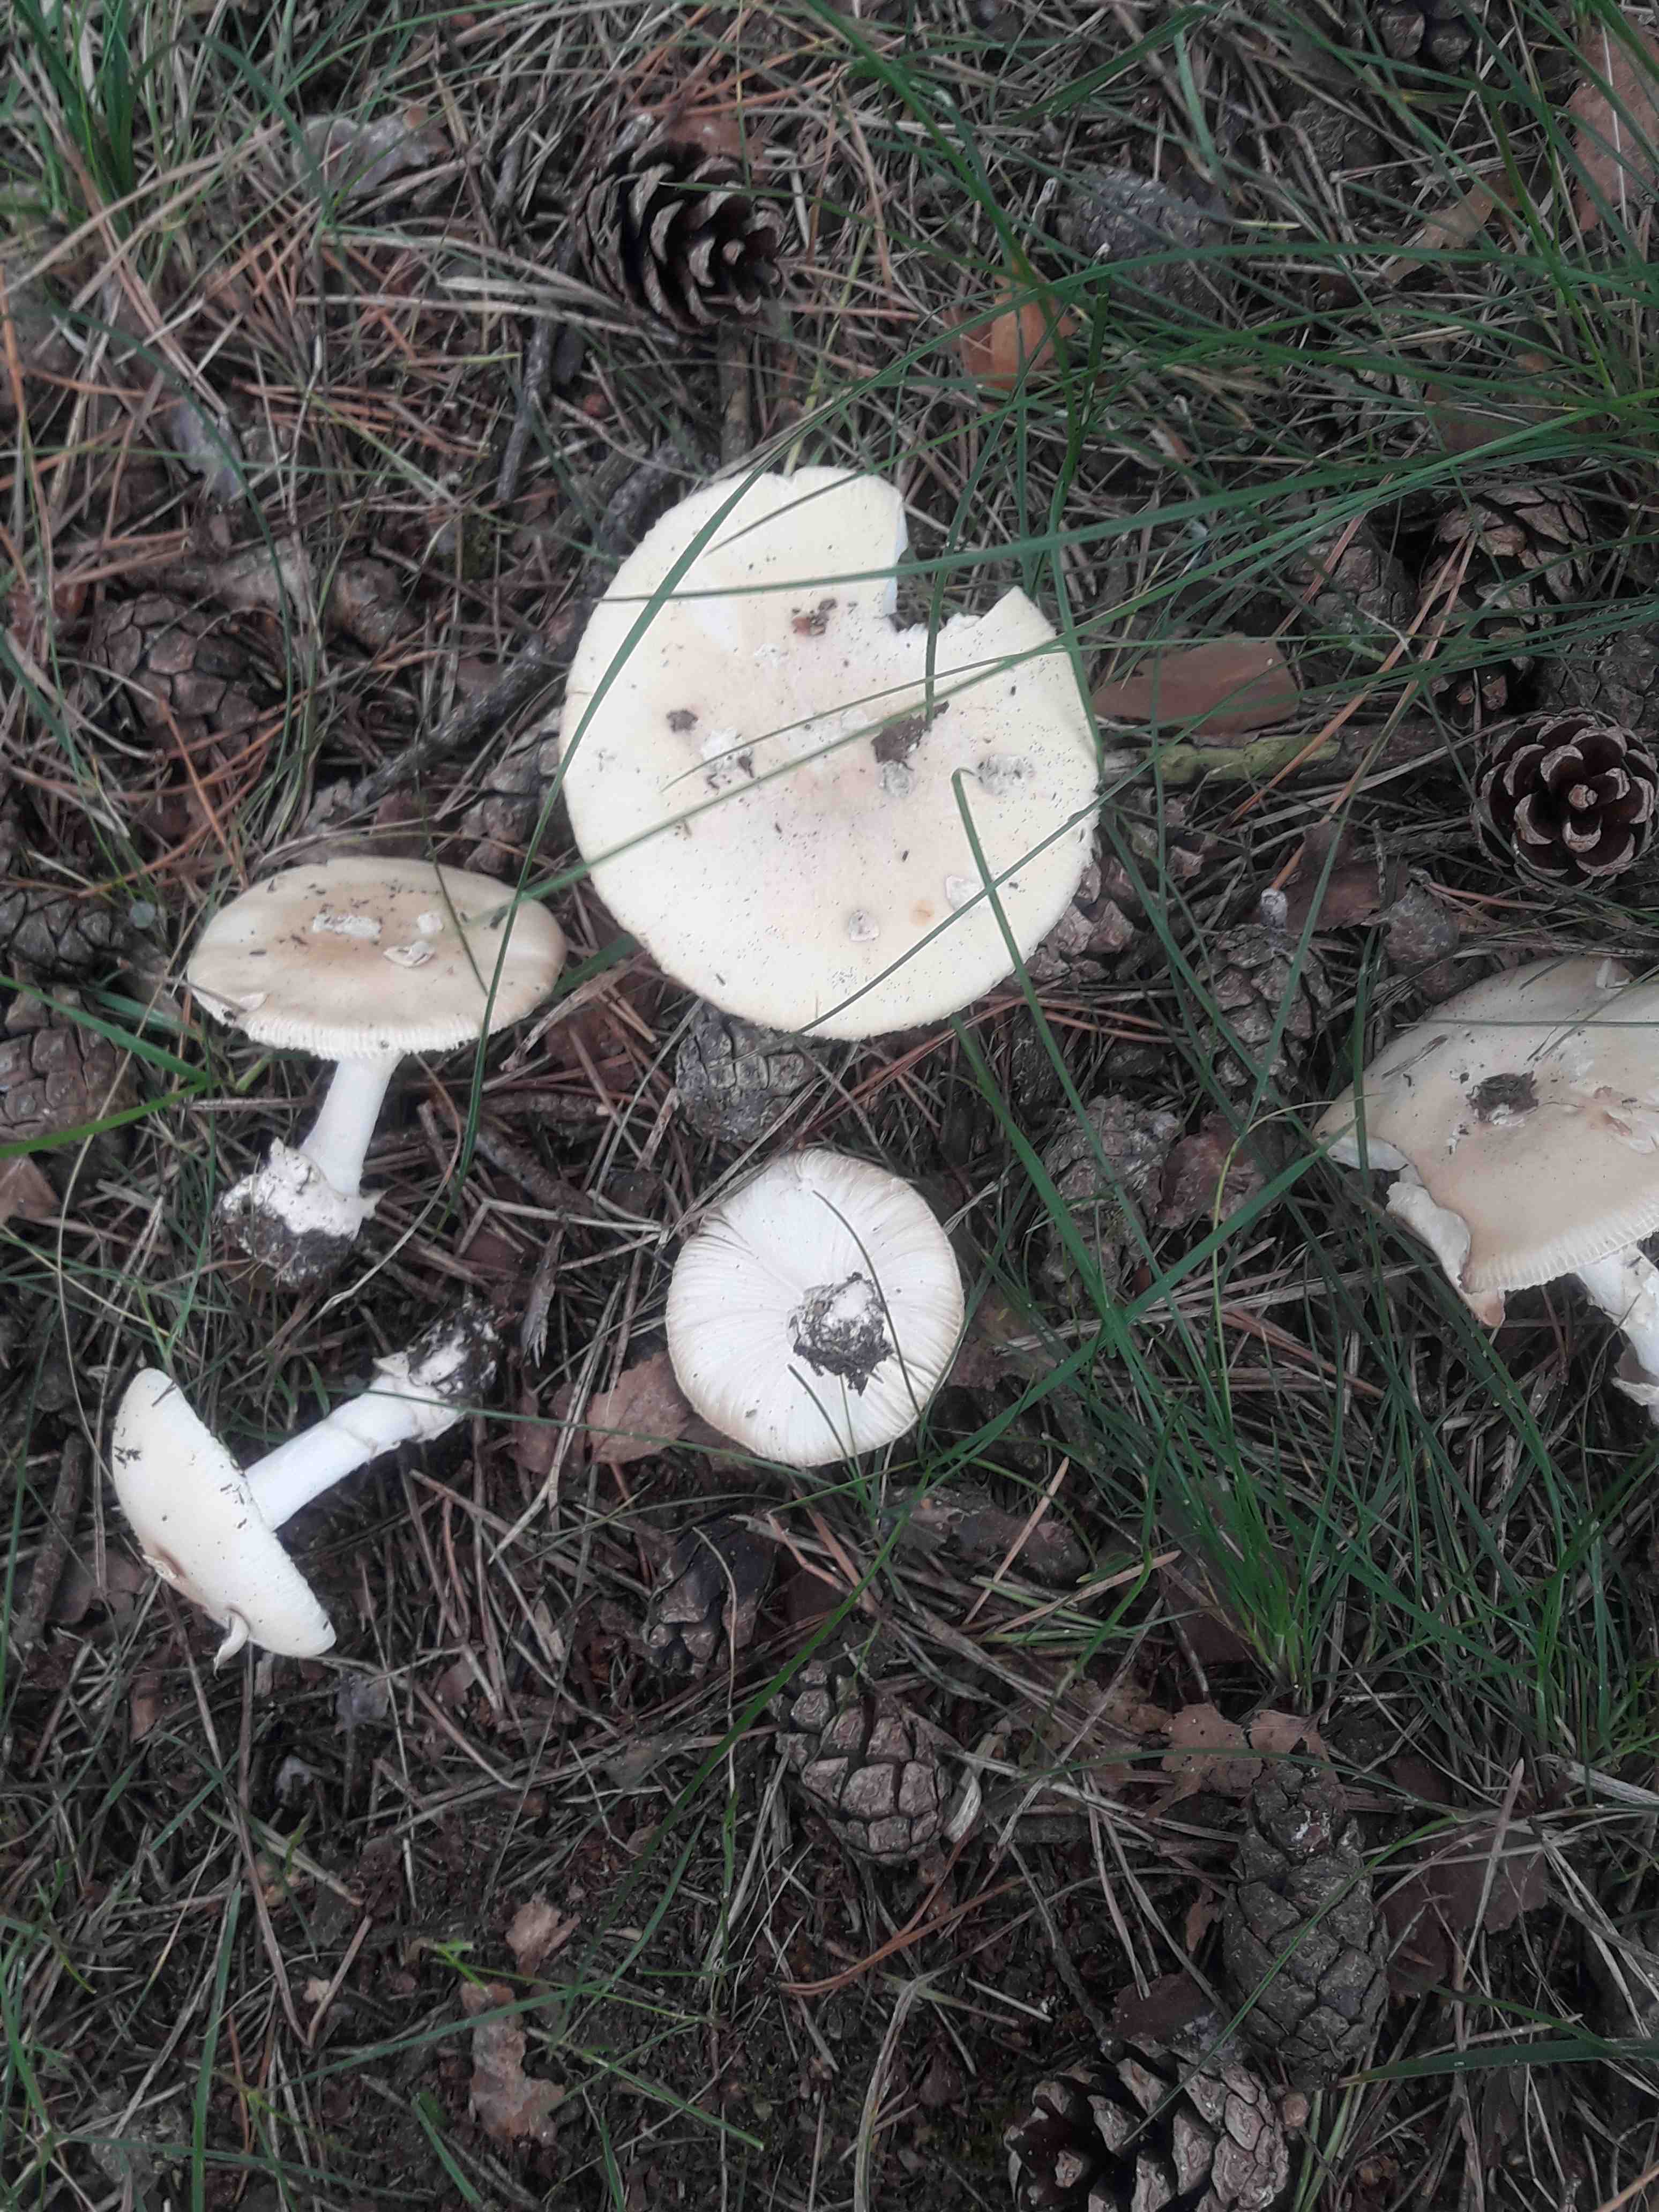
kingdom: Fungi
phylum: Basidiomycota
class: Agaricomycetes
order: Agaricales
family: Amanitaceae
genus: Amanita
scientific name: Amanita gemmata
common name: okkergul fluesvamp
